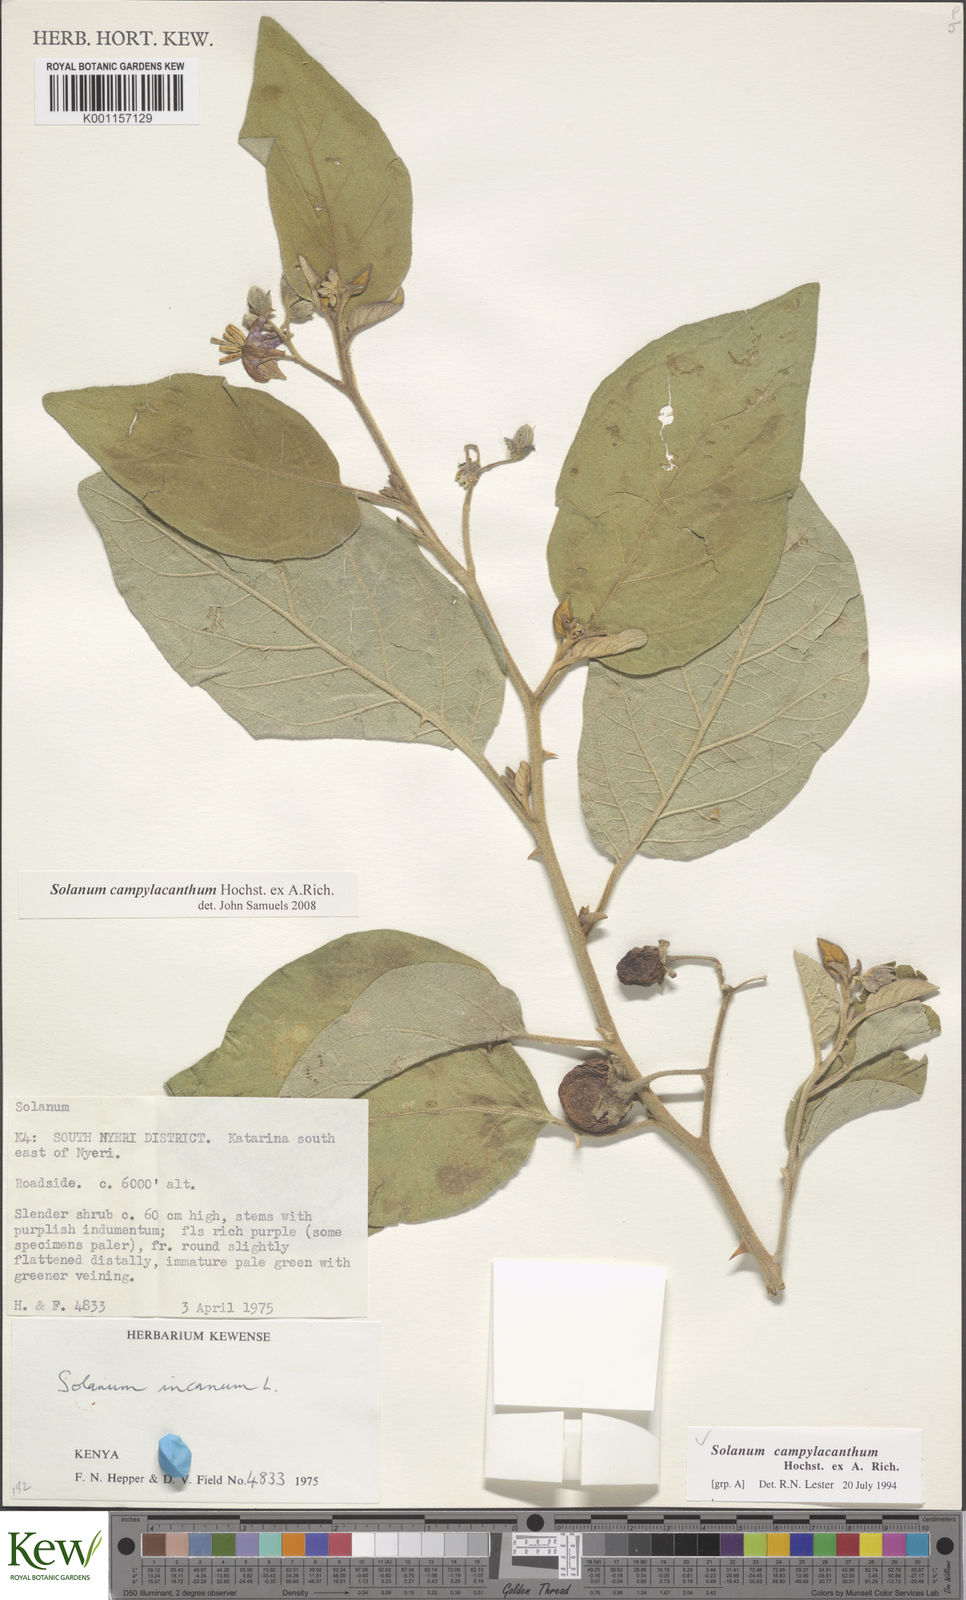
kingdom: Plantae
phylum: Tracheophyta
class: Magnoliopsida
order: Solanales
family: Solanaceae
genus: Solanum
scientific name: Solanum campylacanthum
